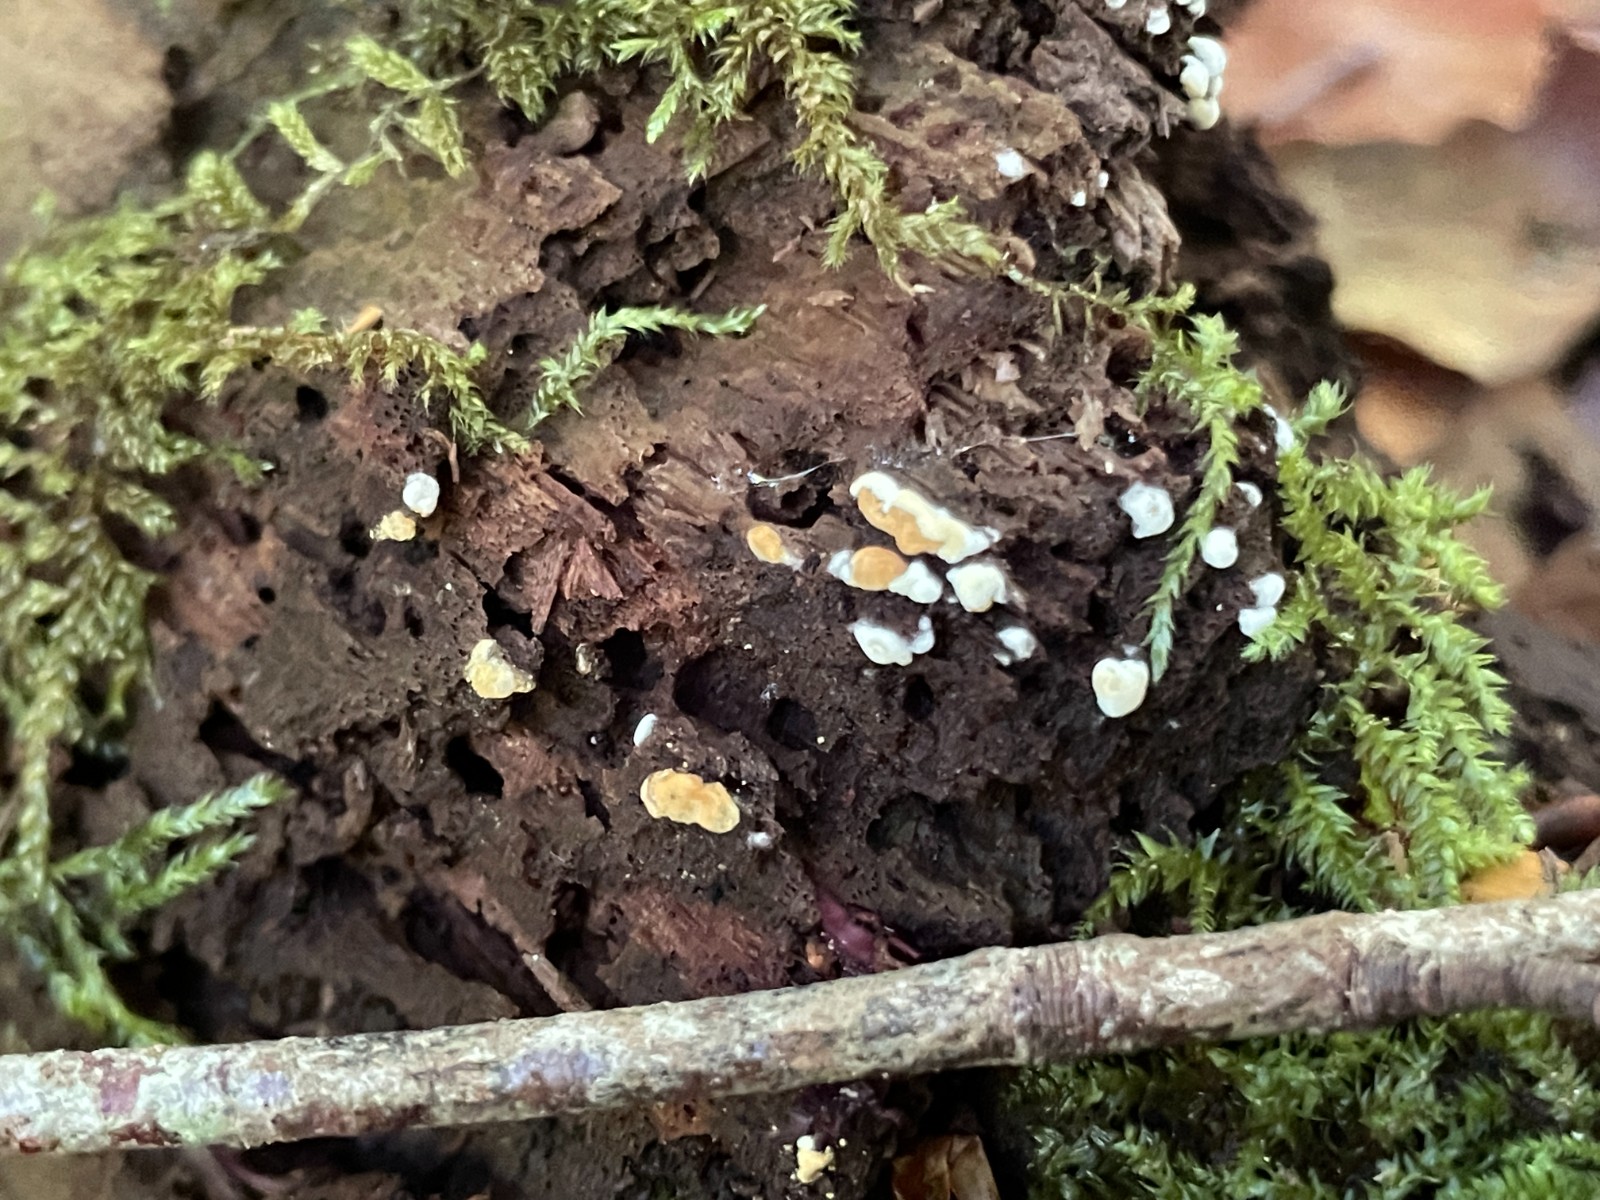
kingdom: Fungi
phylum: Basidiomycota
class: Agaricomycetes
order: Cantharellales
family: Botryobasidiaceae
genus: Botryobasidium
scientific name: Botryobasidium aureum
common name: gylden spindhinde
